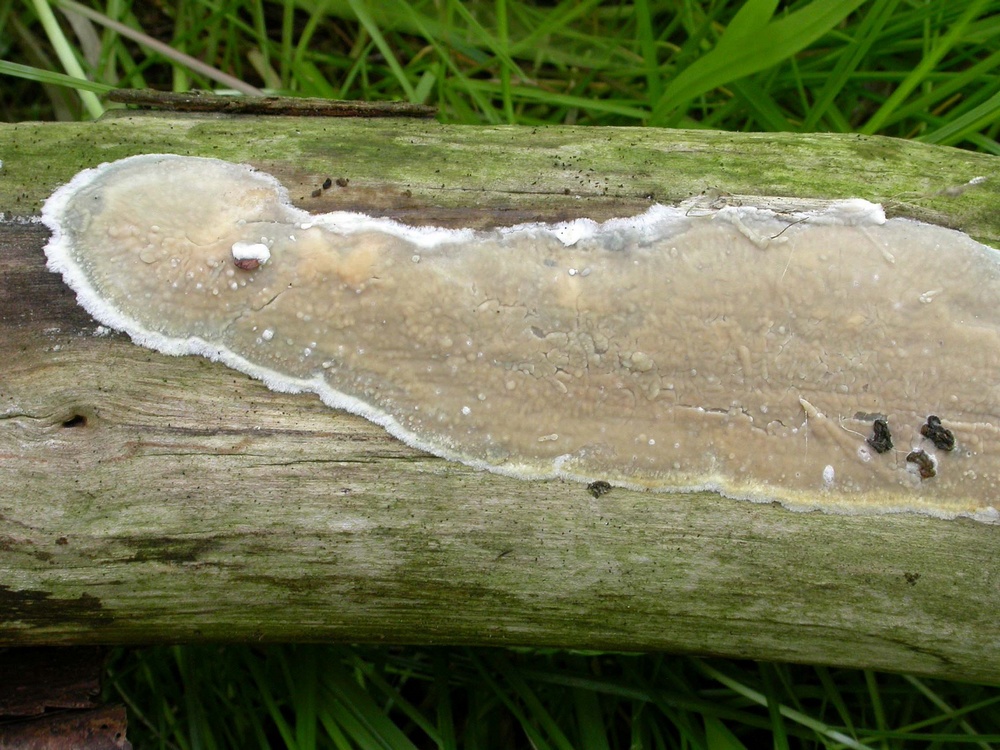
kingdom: Fungi
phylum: Basidiomycota
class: Agaricomycetes
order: Agaricales
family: Radulomycetaceae
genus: Radulomyces
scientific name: Radulomyces confluens
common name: glat naftalinskind
